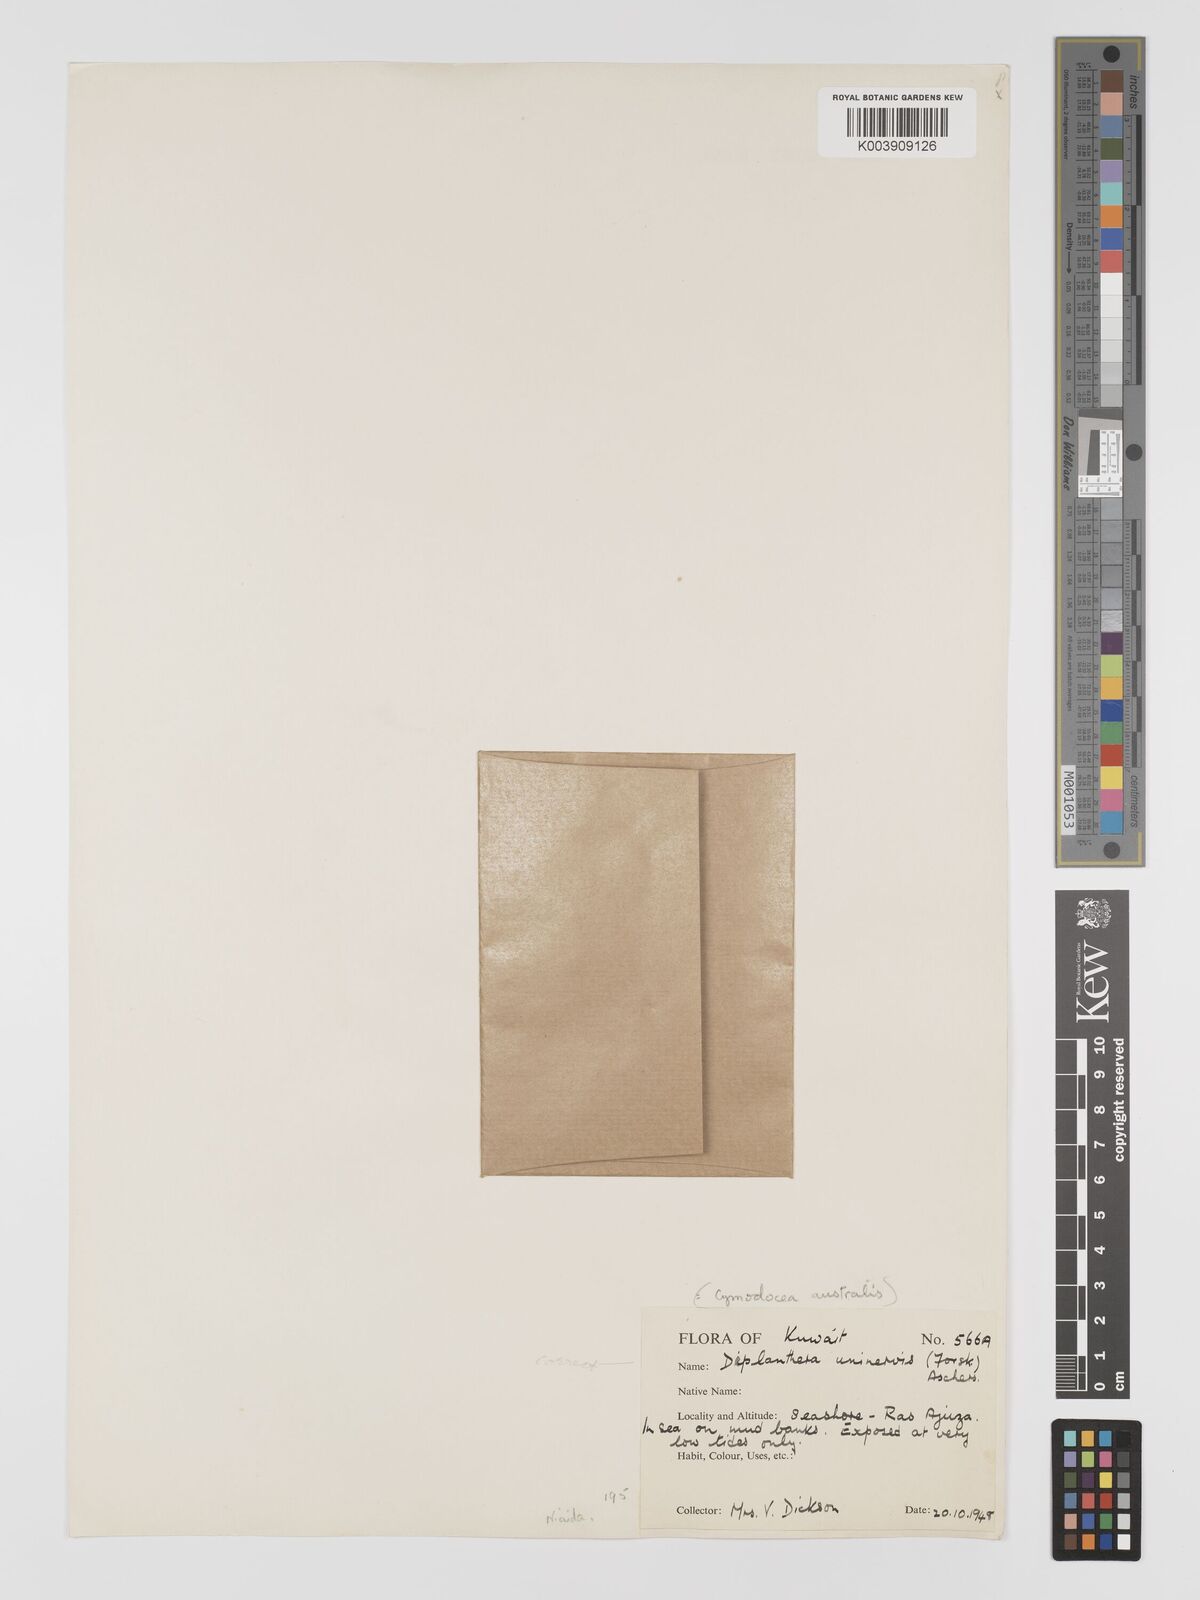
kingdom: Plantae
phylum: Tracheophyta
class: Liliopsida
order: Alismatales
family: Cymodoceaceae
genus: Halodule
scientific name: Halodule uninervis
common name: Narrowleaf seagrass
